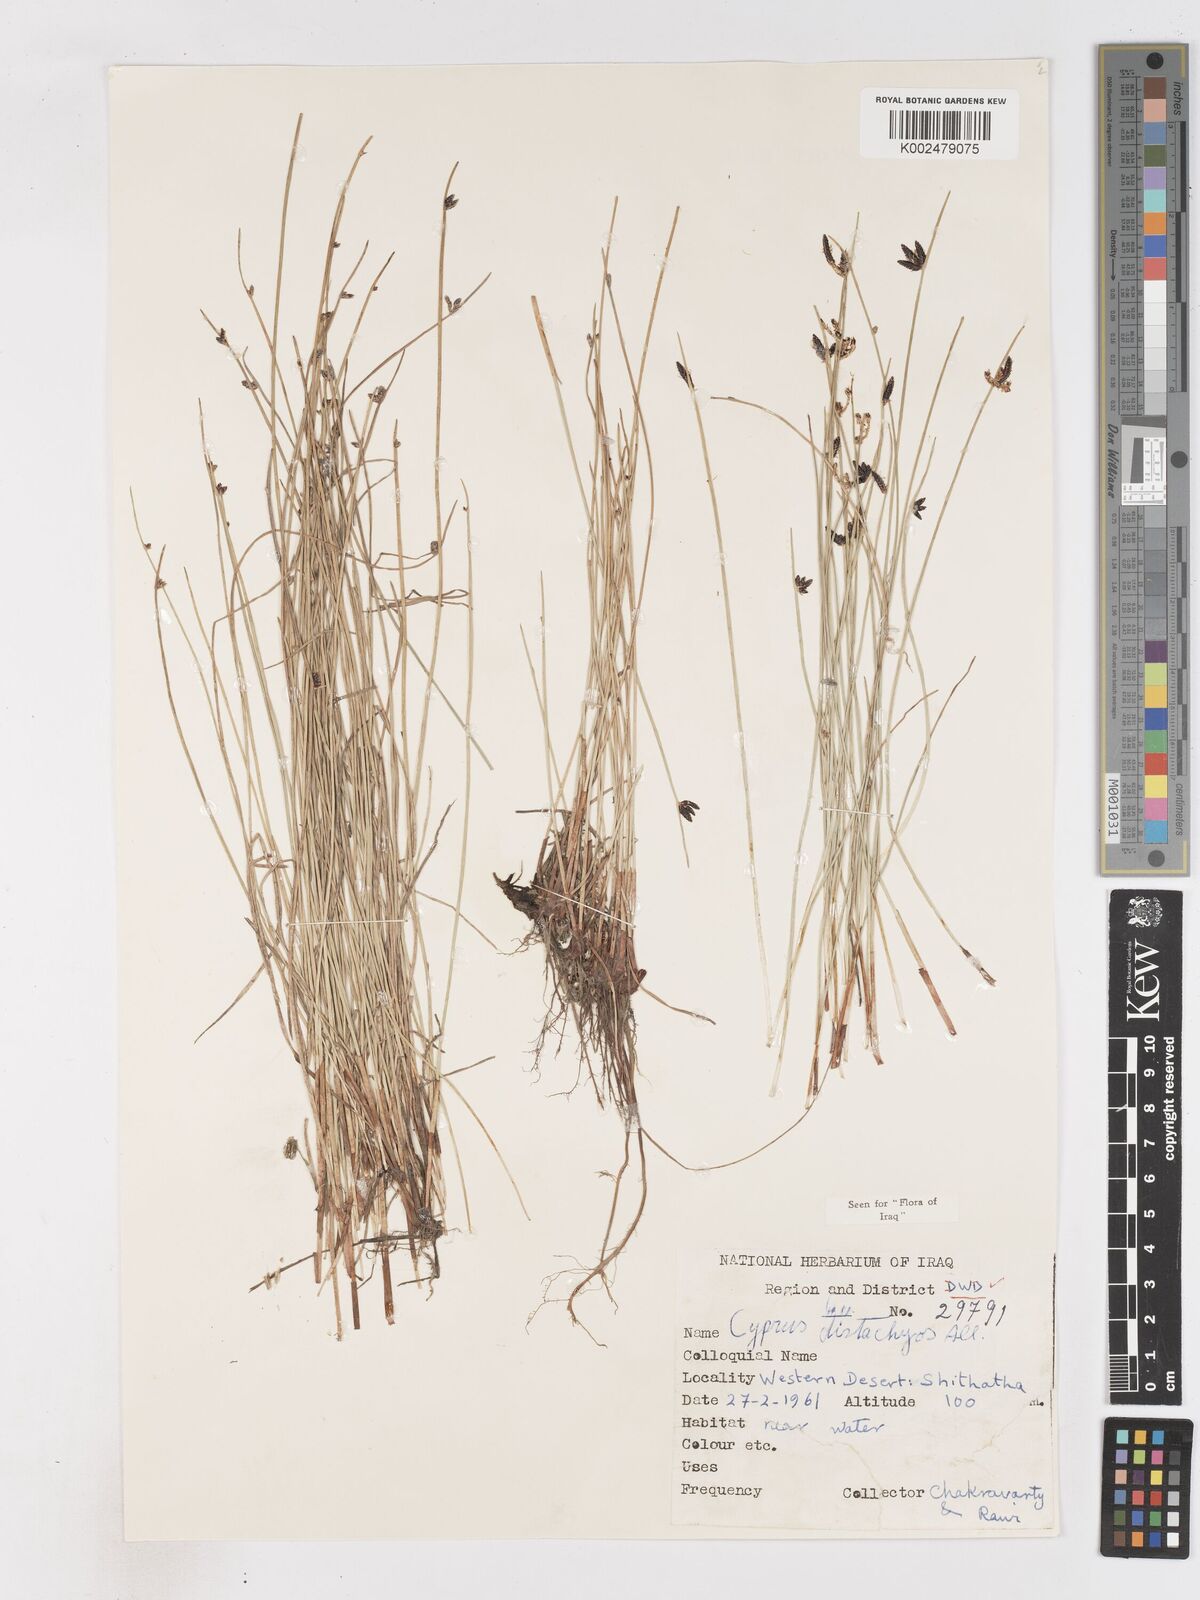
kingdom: Plantae
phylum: Tracheophyta
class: Liliopsida
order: Poales
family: Cyperaceae
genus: Cyperus
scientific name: Cyperus laevigatus
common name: Smooth flat sedge
